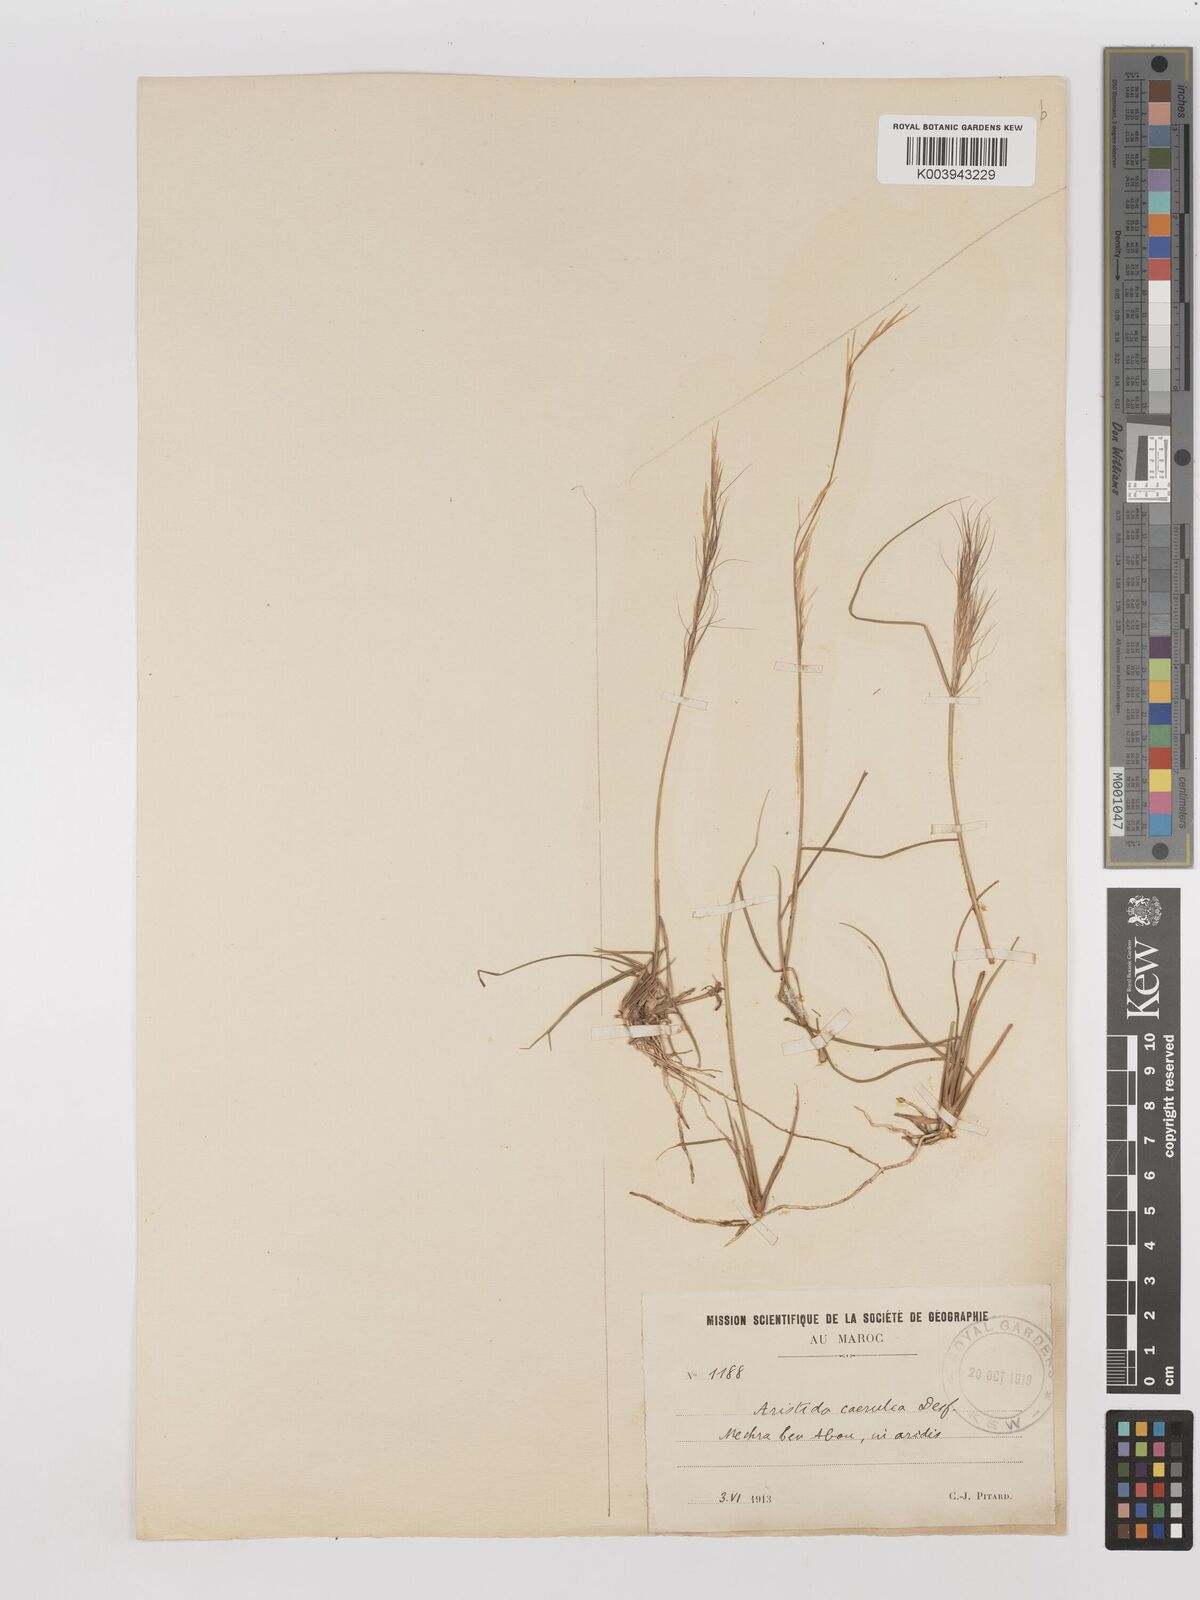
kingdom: Plantae
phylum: Tracheophyta
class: Liliopsida
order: Poales
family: Poaceae
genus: Aristida
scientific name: Aristida adscensionis
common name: Sixweeks threeawn
